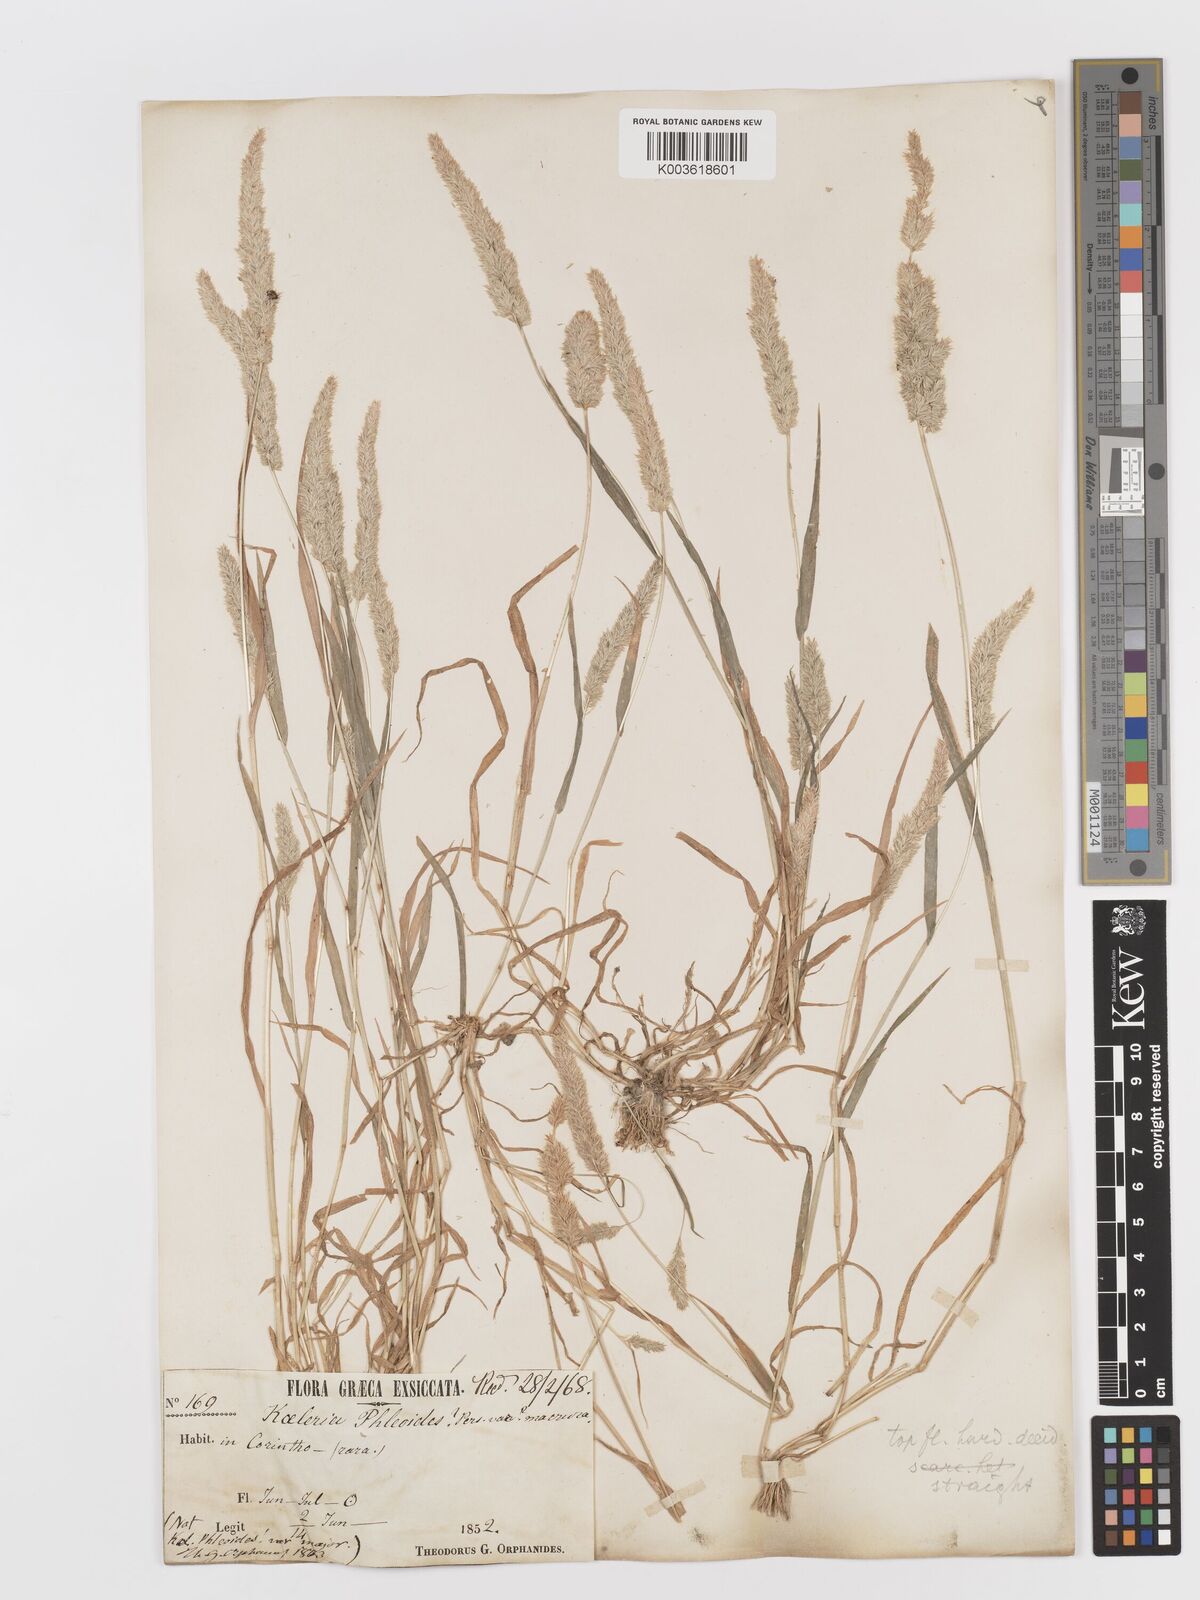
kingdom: Plantae
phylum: Tracheophyta
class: Liliopsida
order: Poales
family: Poaceae
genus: Rostraria
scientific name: Rostraria cristata
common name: Mediterranean hair-grass
